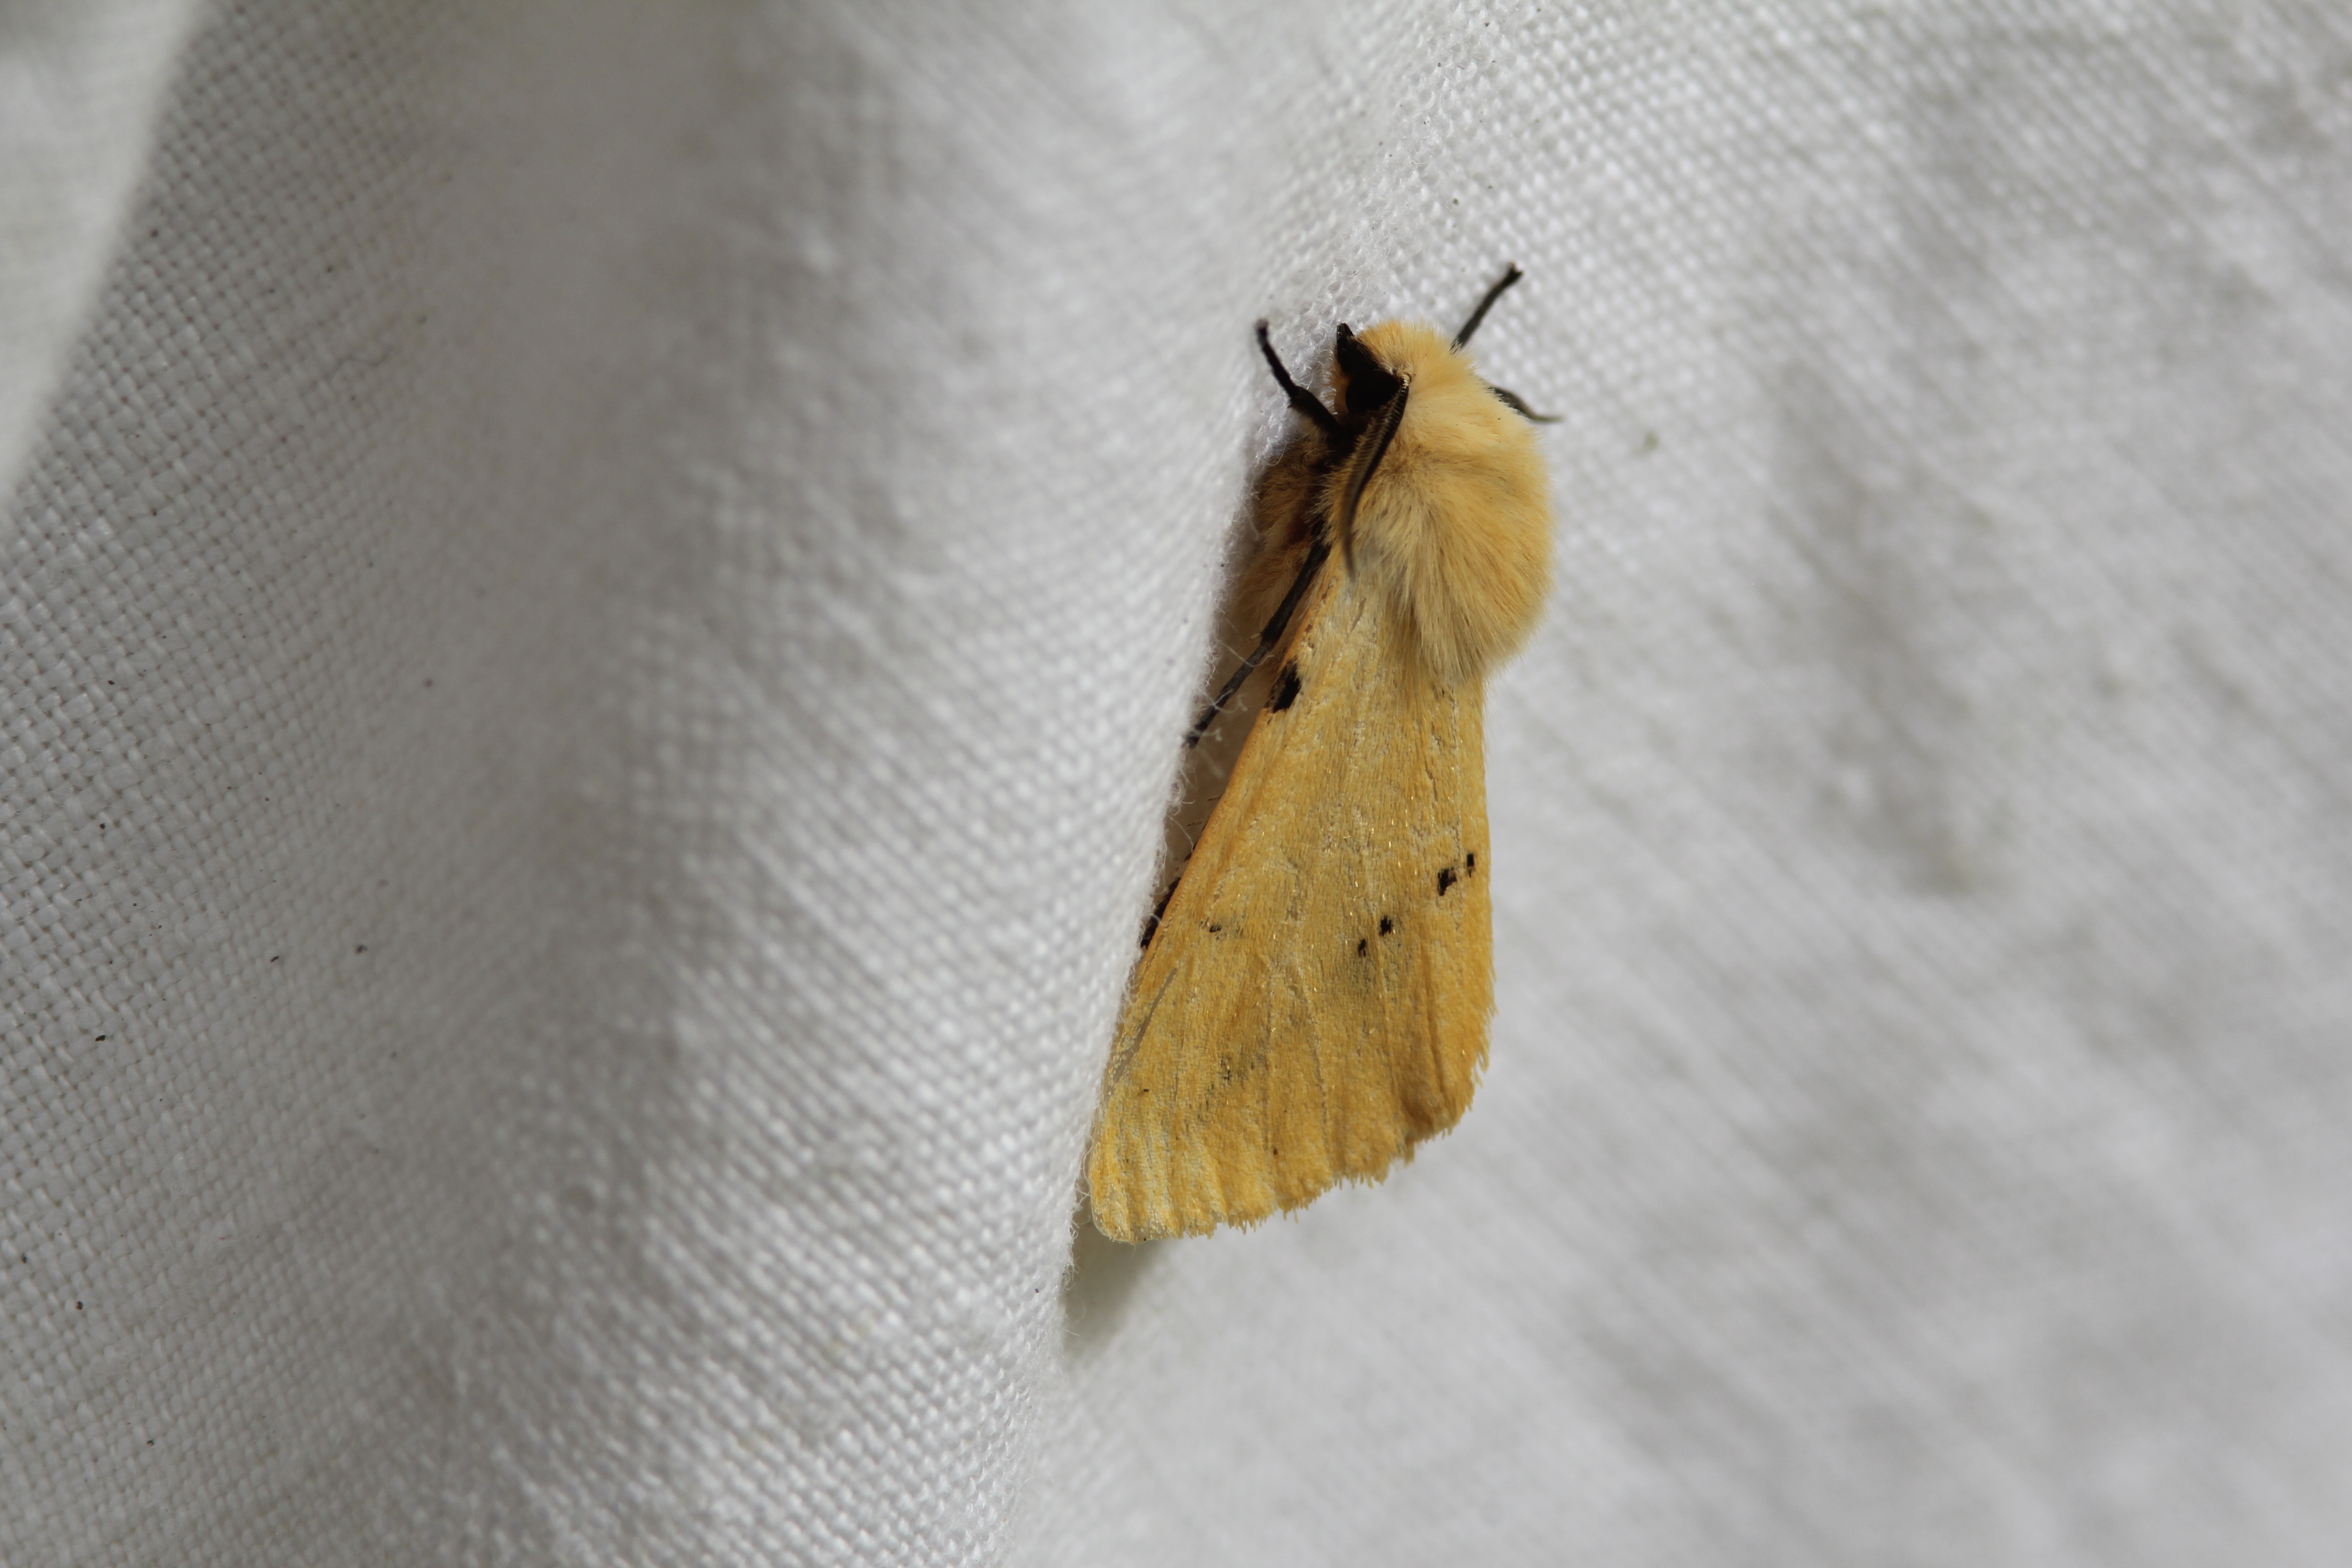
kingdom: Animalia
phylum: Arthropoda
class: Insecta
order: Lepidoptera
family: Erebidae
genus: Spilarctia
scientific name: Spilarctia lutea
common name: Buff ermine
